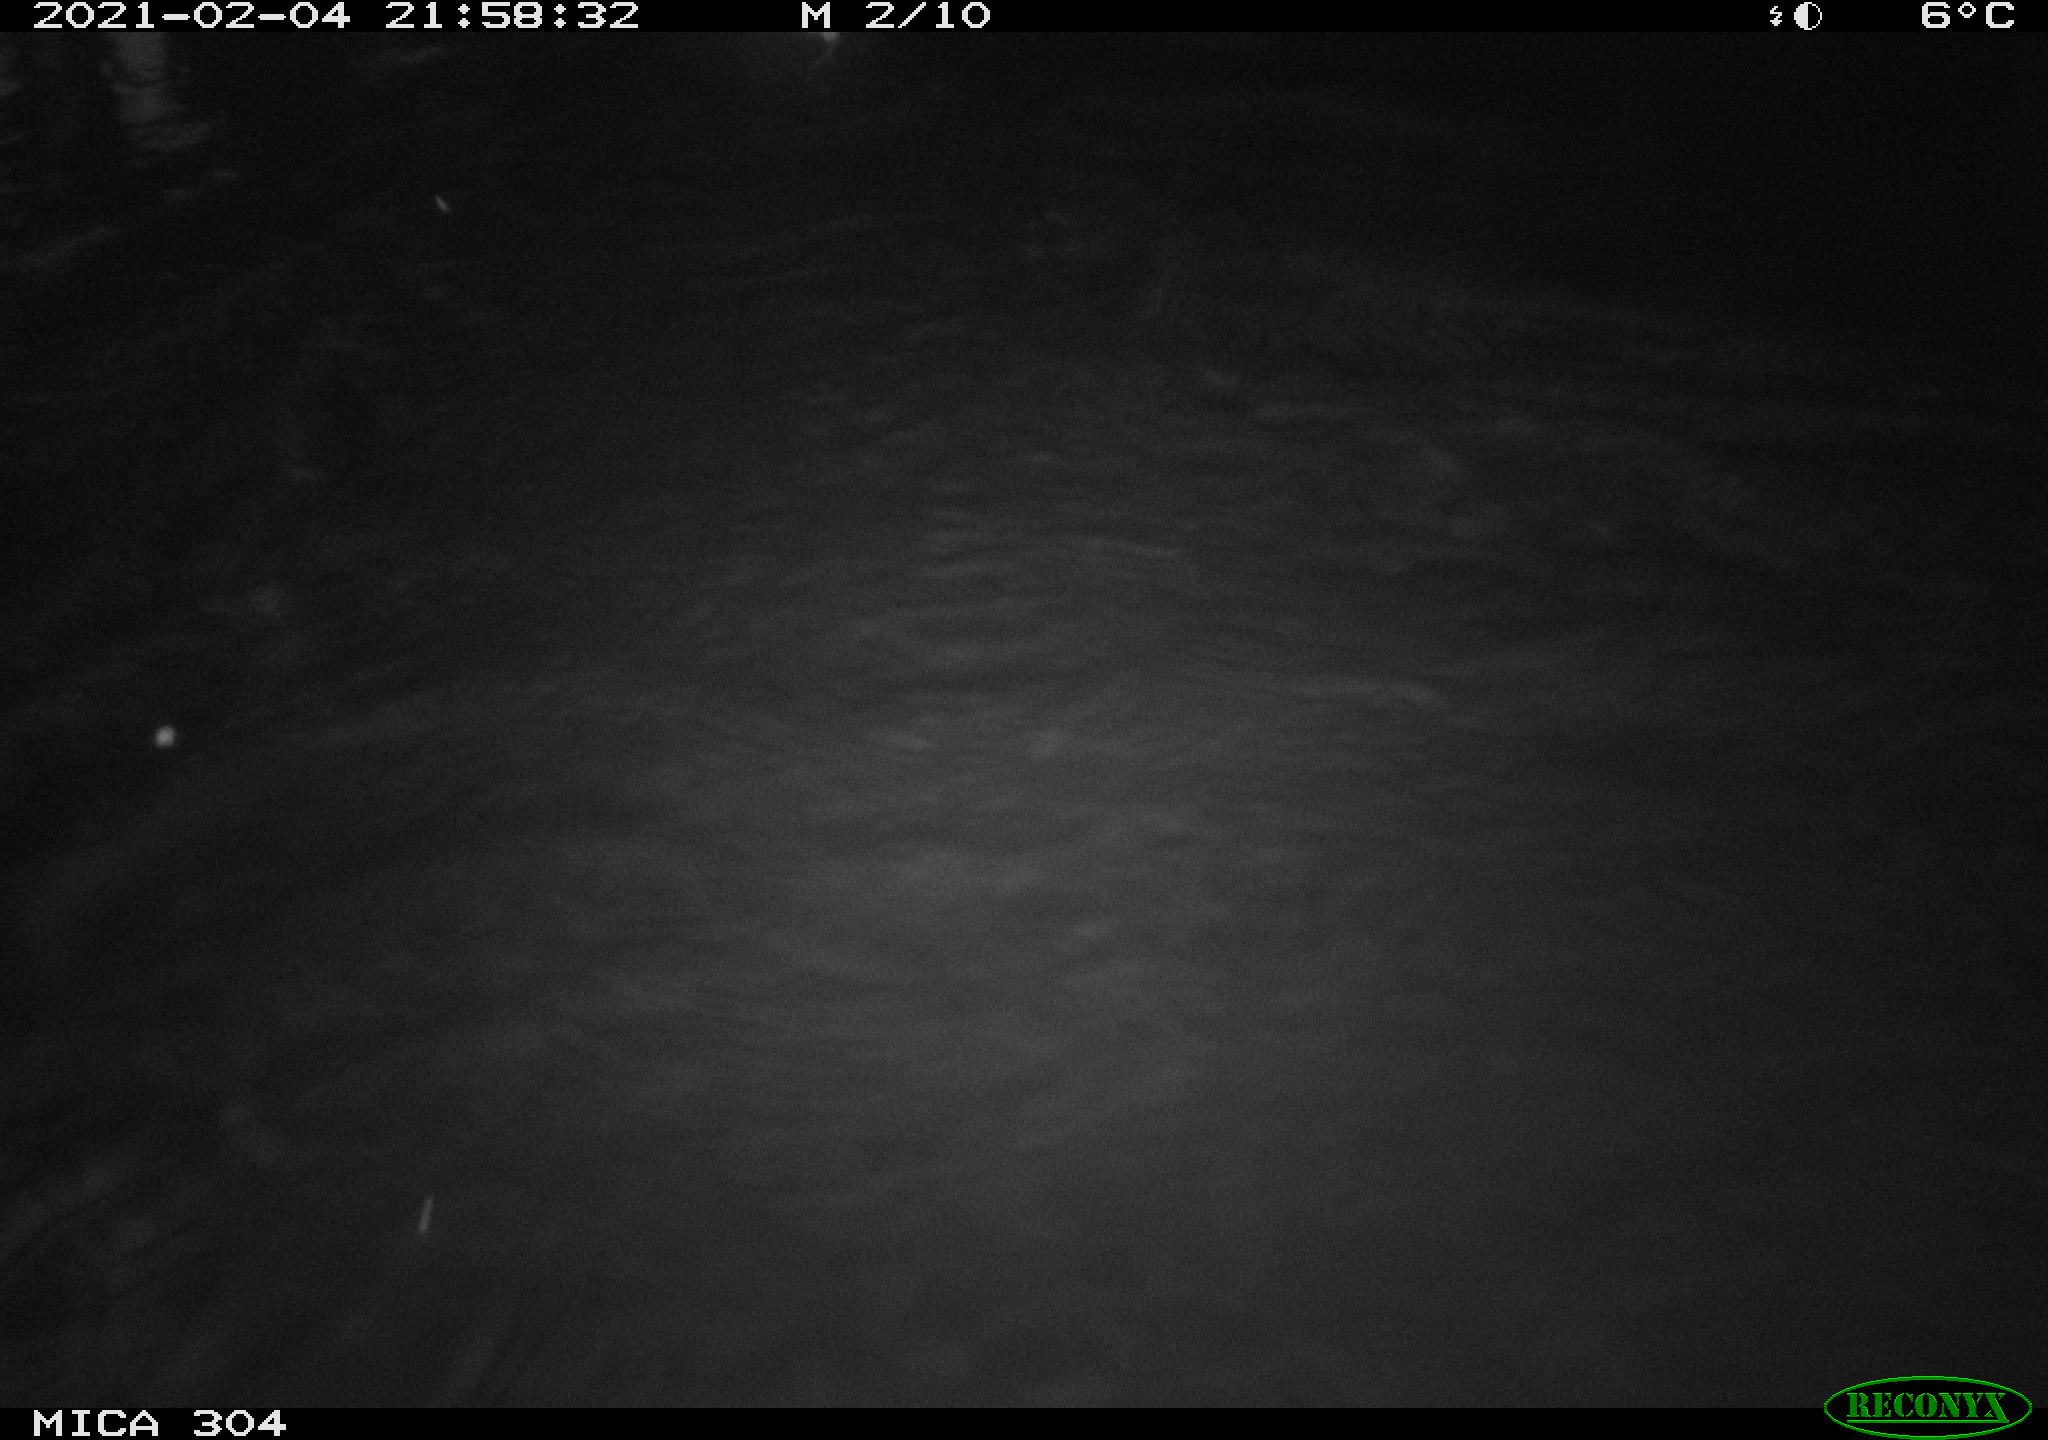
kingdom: Animalia
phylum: Chordata
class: Mammalia
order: Rodentia
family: Cricetidae
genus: Ondatra
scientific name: Ondatra zibethicus
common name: Muskrat
